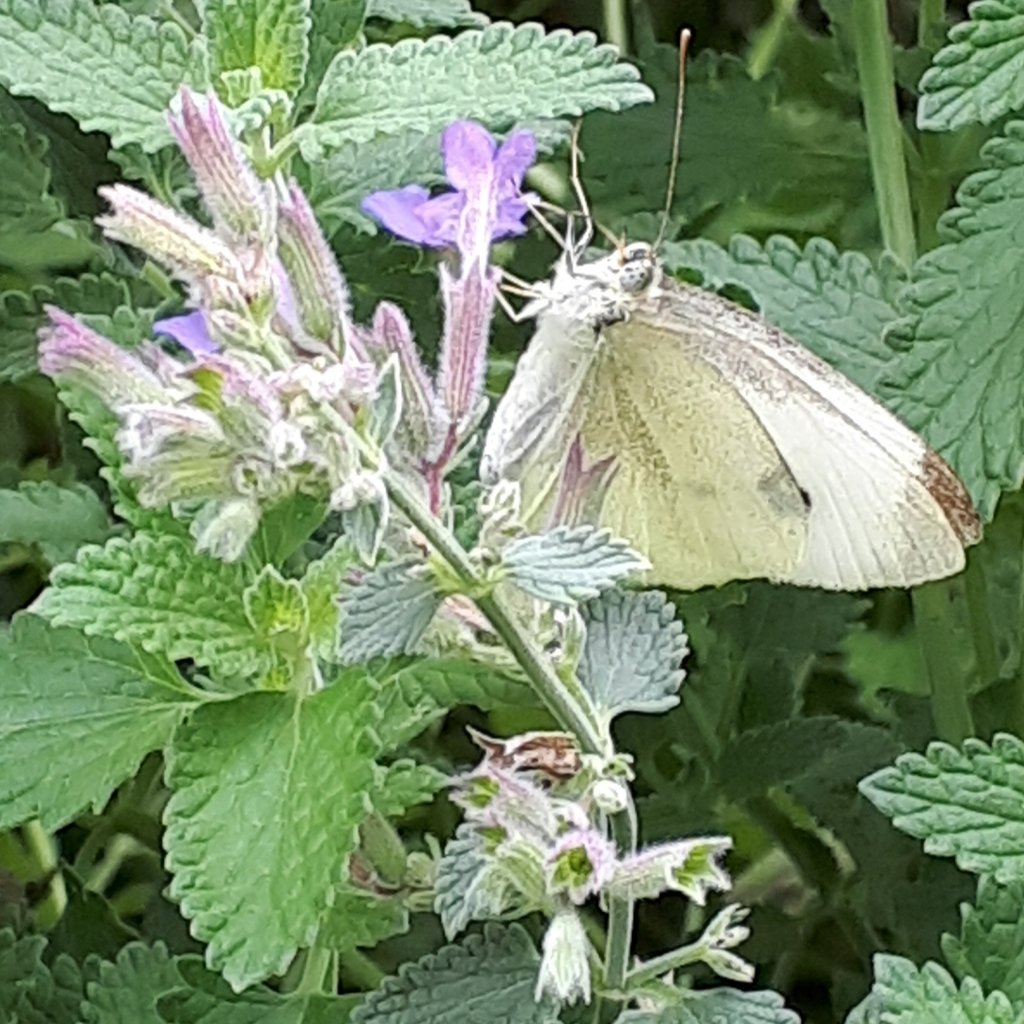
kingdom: Animalia
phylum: Arthropoda
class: Insecta
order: Lepidoptera
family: Pieridae
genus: Pieris
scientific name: Pieris rapae
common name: Cabbage White
